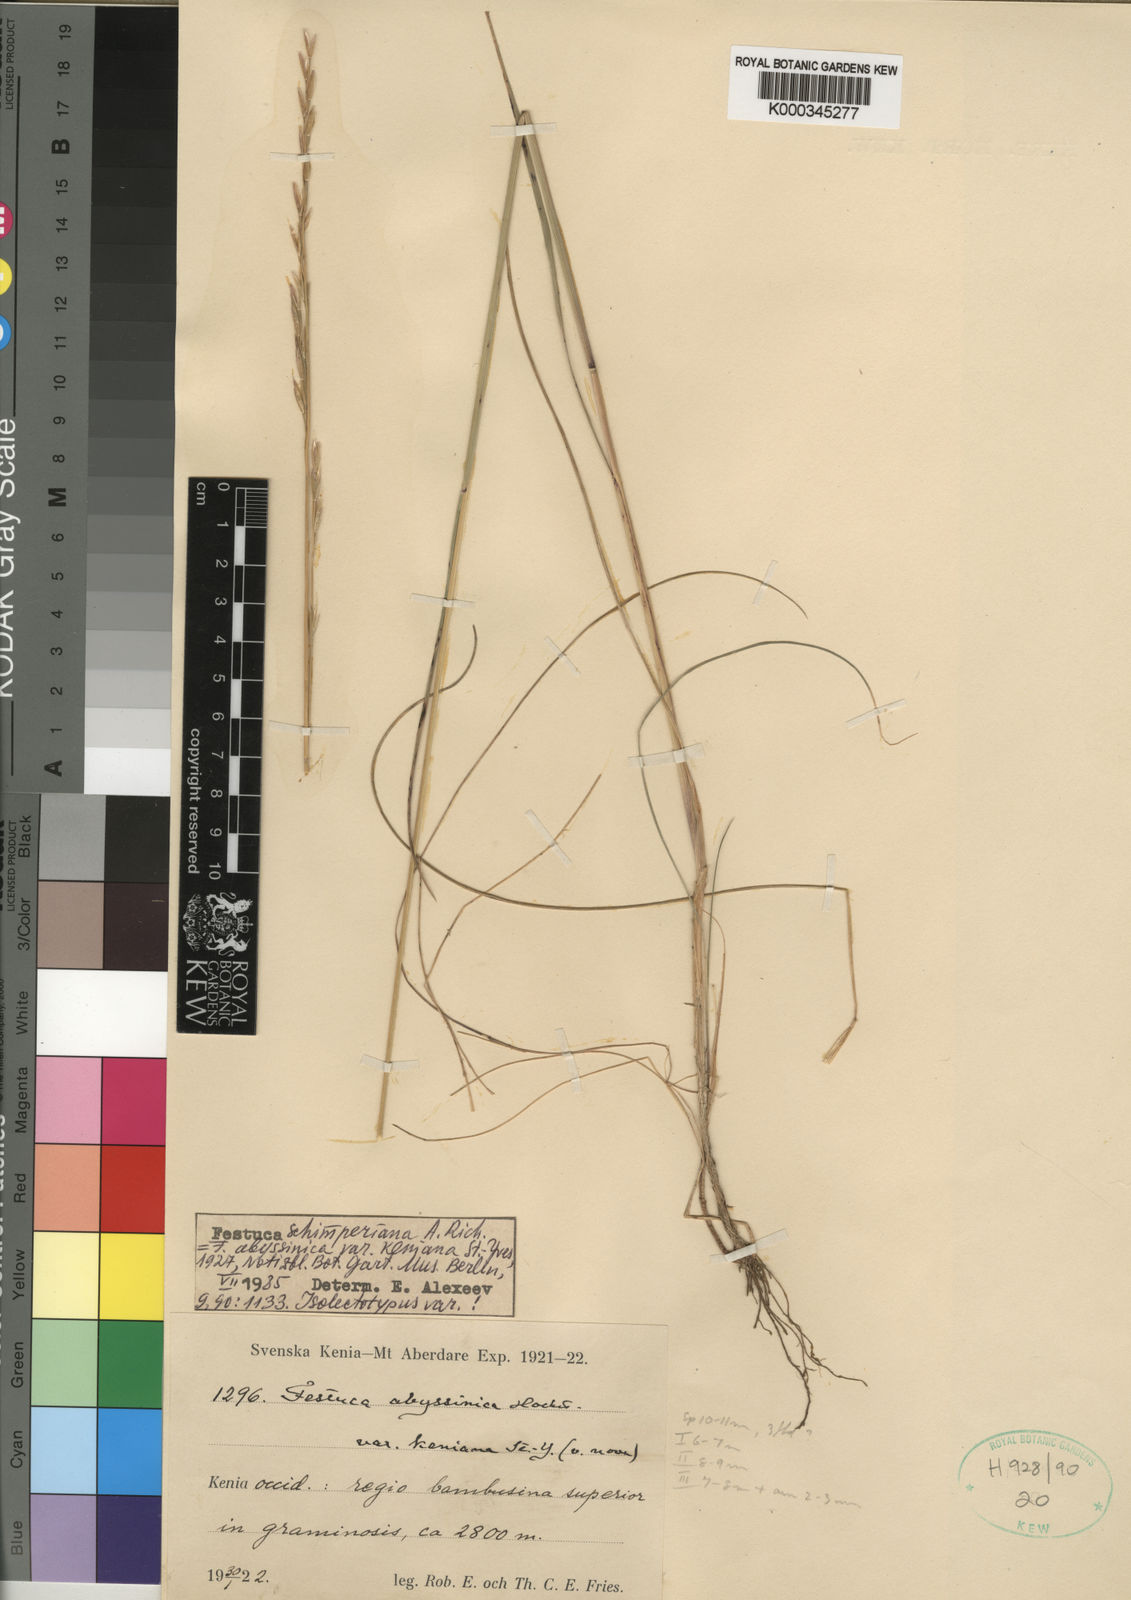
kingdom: Plantae
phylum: Tracheophyta
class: Liliopsida
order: Poales
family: Poaceae
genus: Festuca
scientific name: Festuca abyssinica
